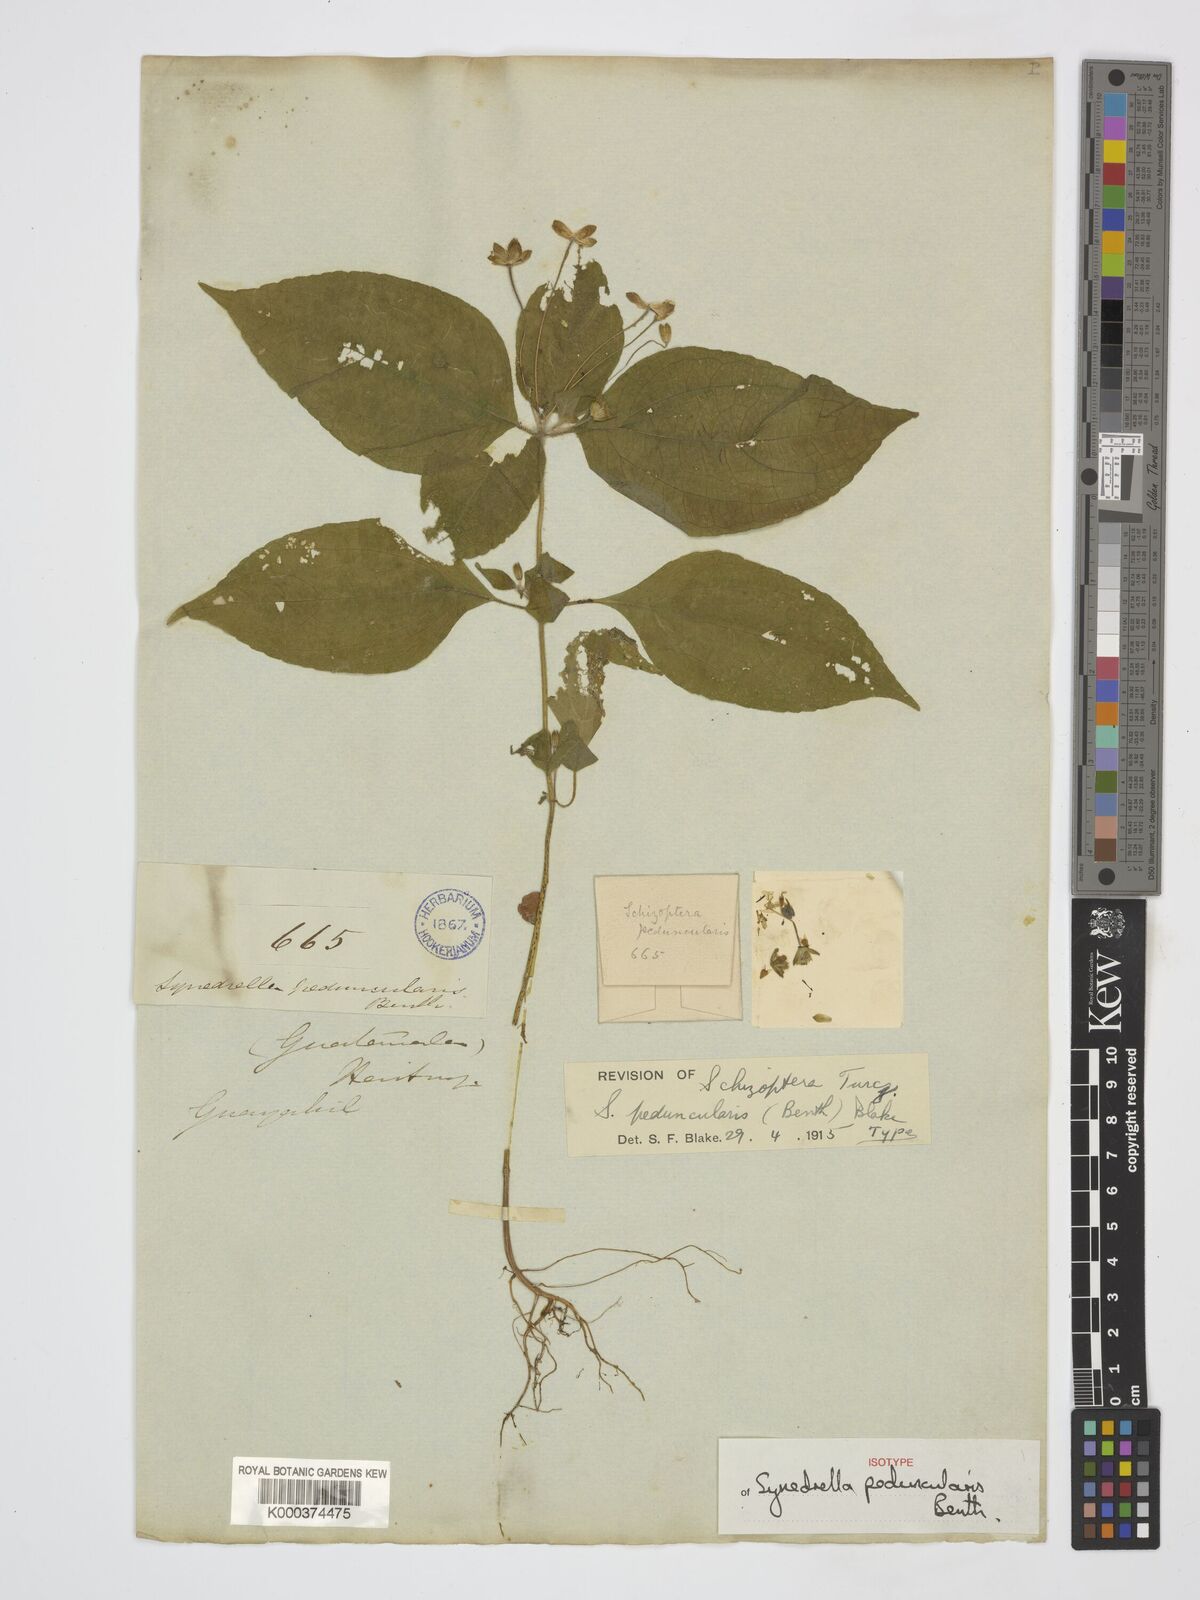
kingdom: Plantae
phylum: Tracheophyta
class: Magnoliopsida
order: Asterales
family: Asteraceae
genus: Schizoptera
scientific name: Schizoptera peduncularis
